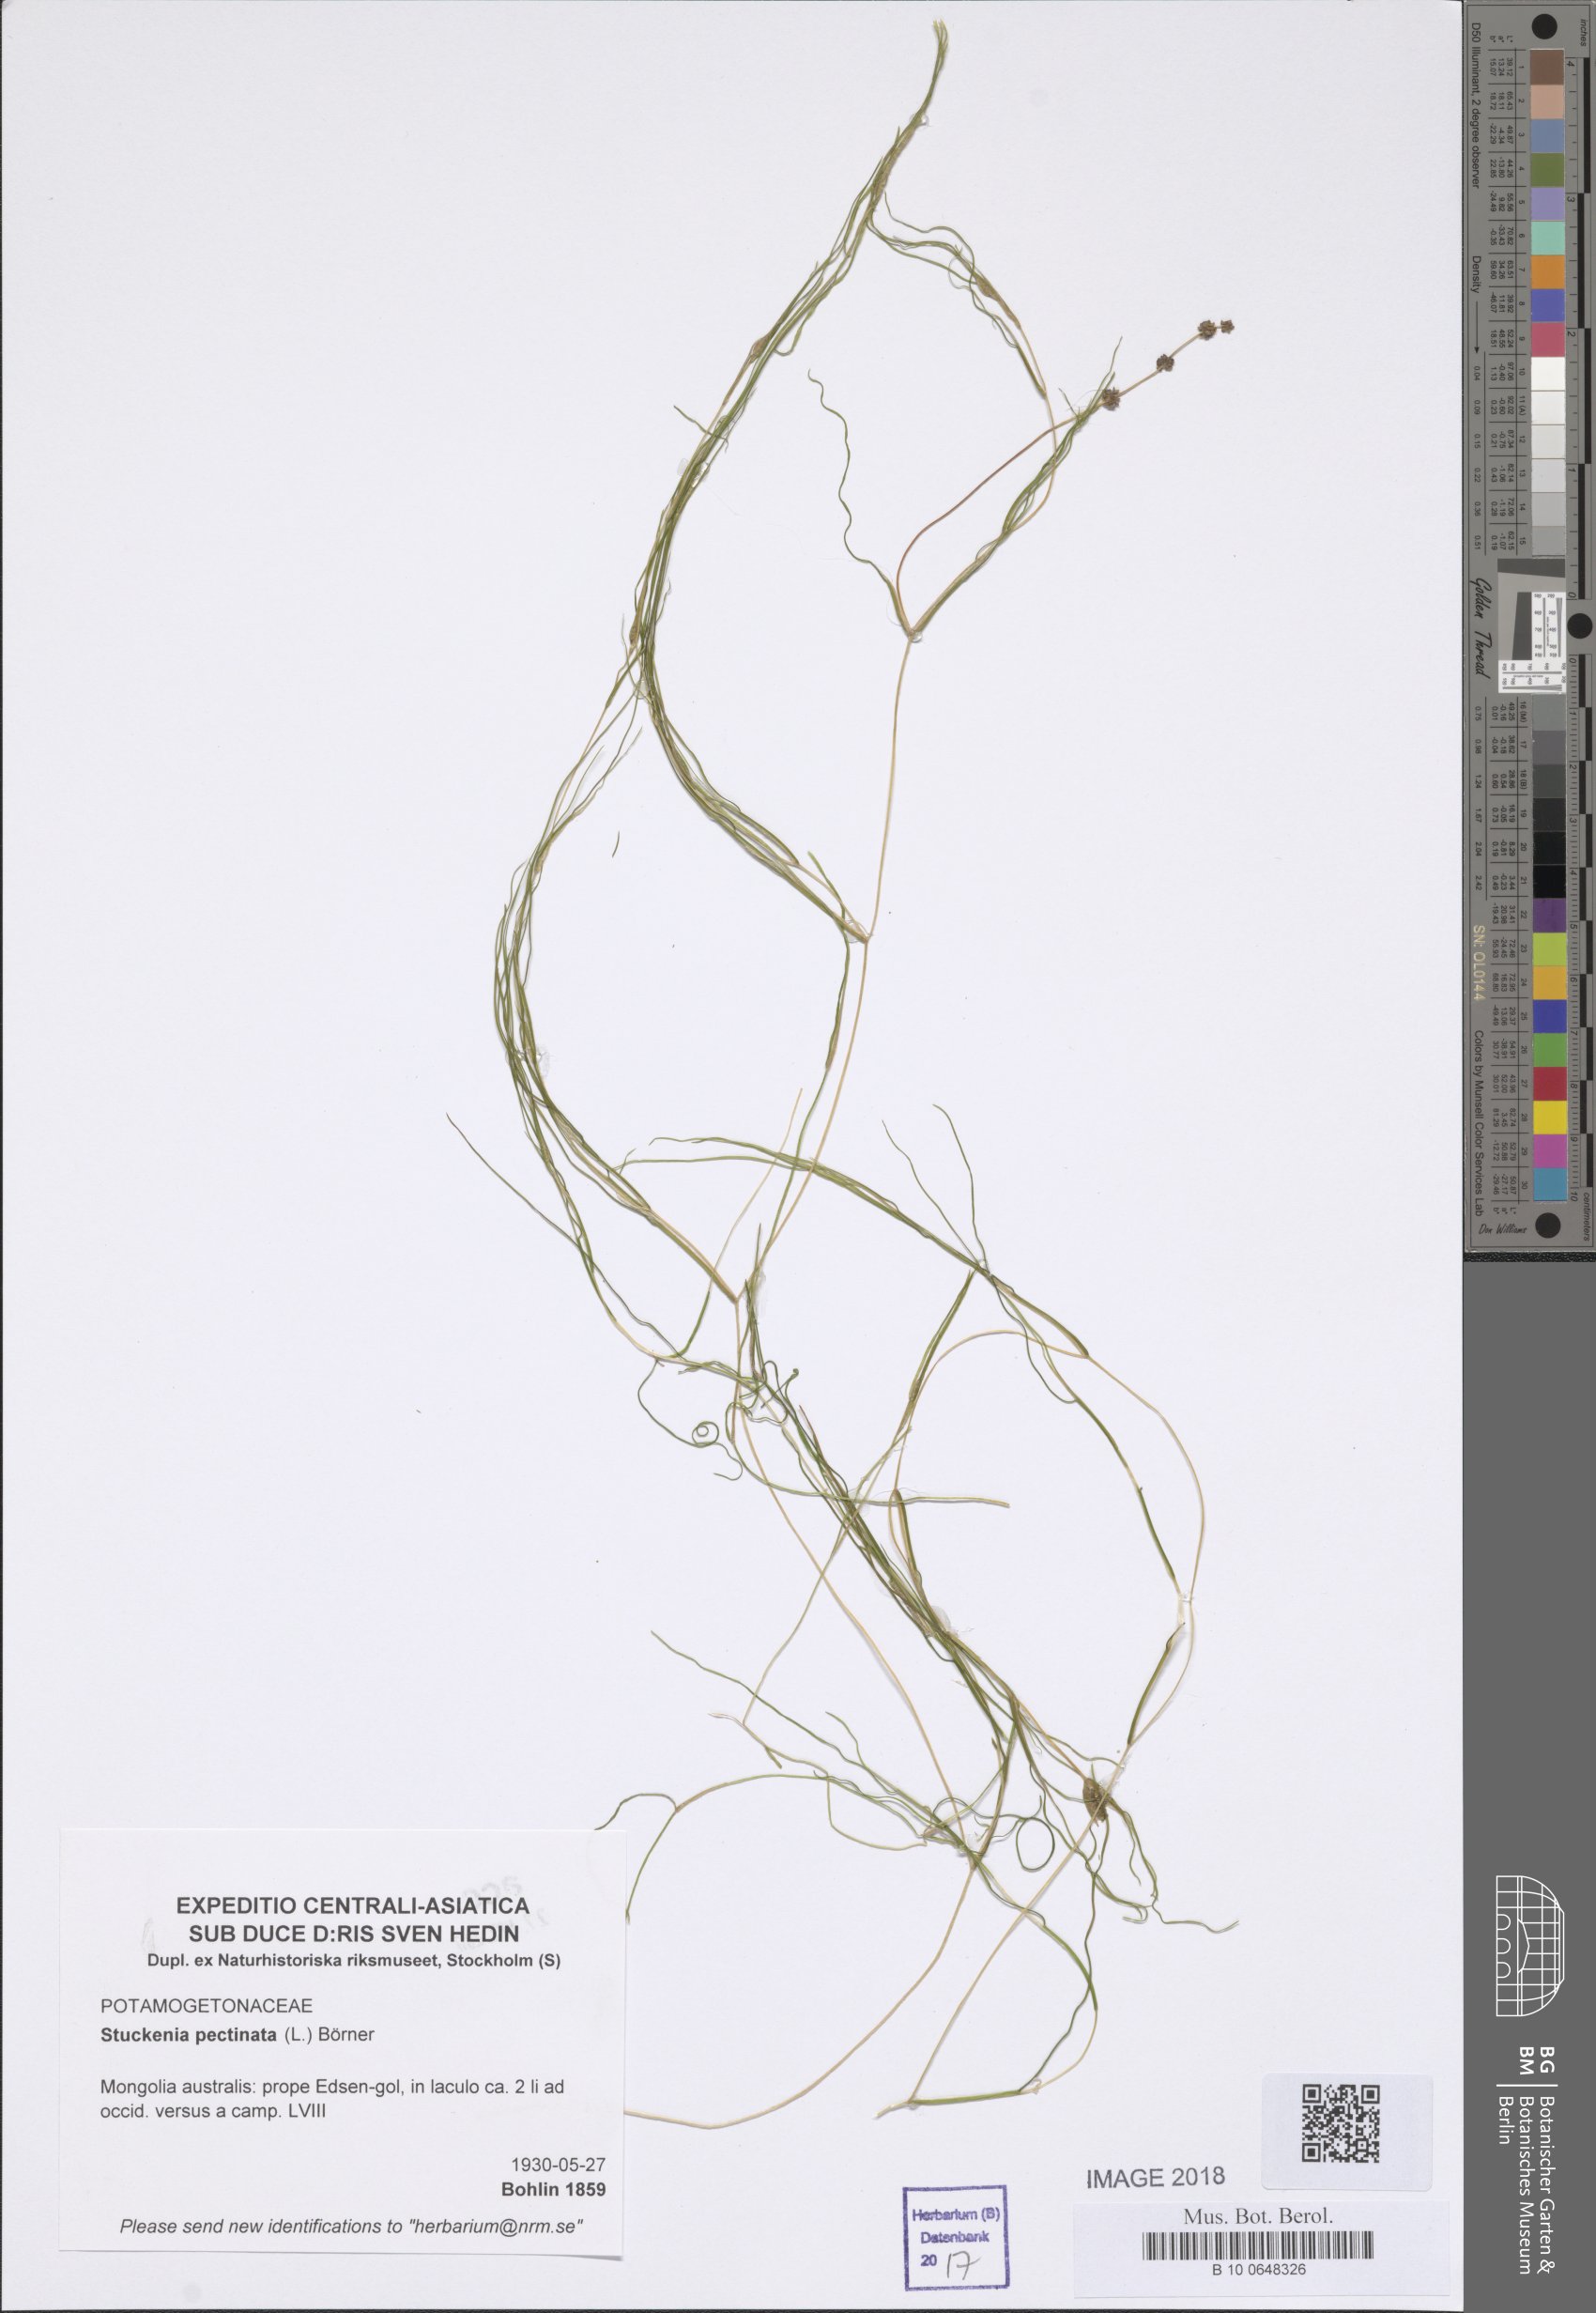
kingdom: Plantae
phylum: Tracheophyta
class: Liliopsida
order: Alismatales
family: Potamogetonaceae
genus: Stuckenia
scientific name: Stuckenia pectinata
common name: Sago pondweed
